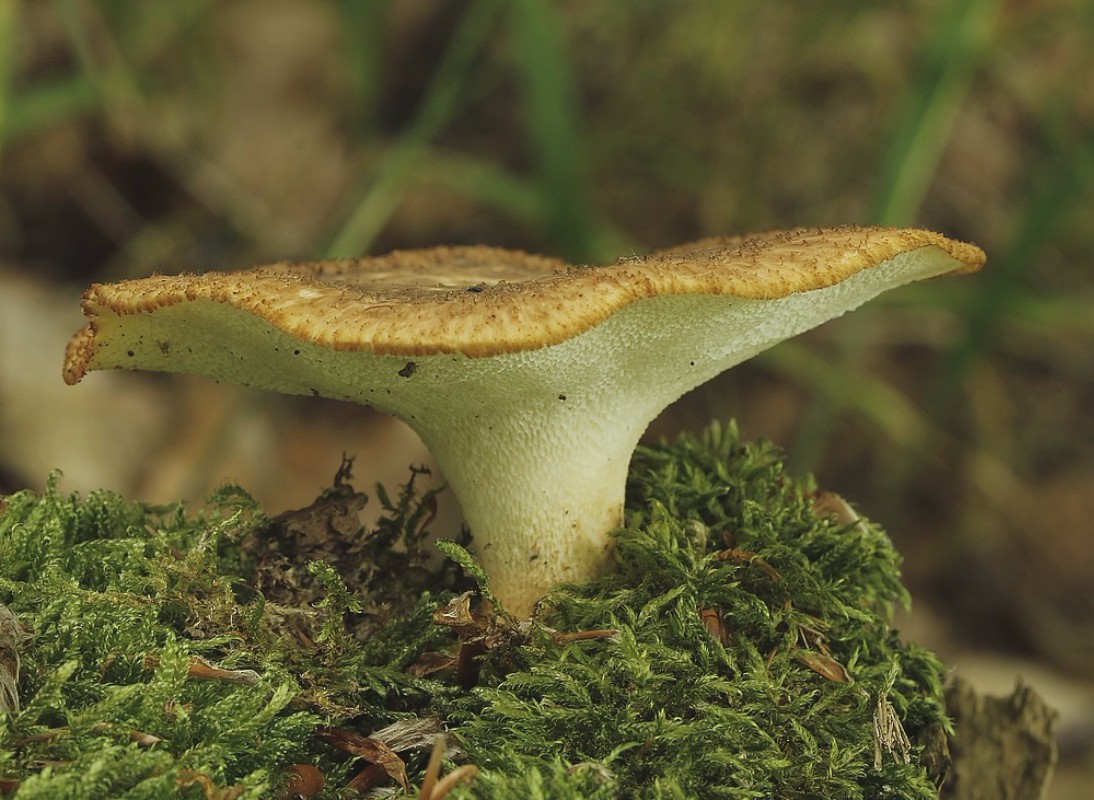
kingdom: Fungi
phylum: Basidiomycota
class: Agaricomycetes
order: Polyporales
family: Polyporaceae
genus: Polyporus
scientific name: Polyporus tuberaster
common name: knoldet stilkporesvamp
